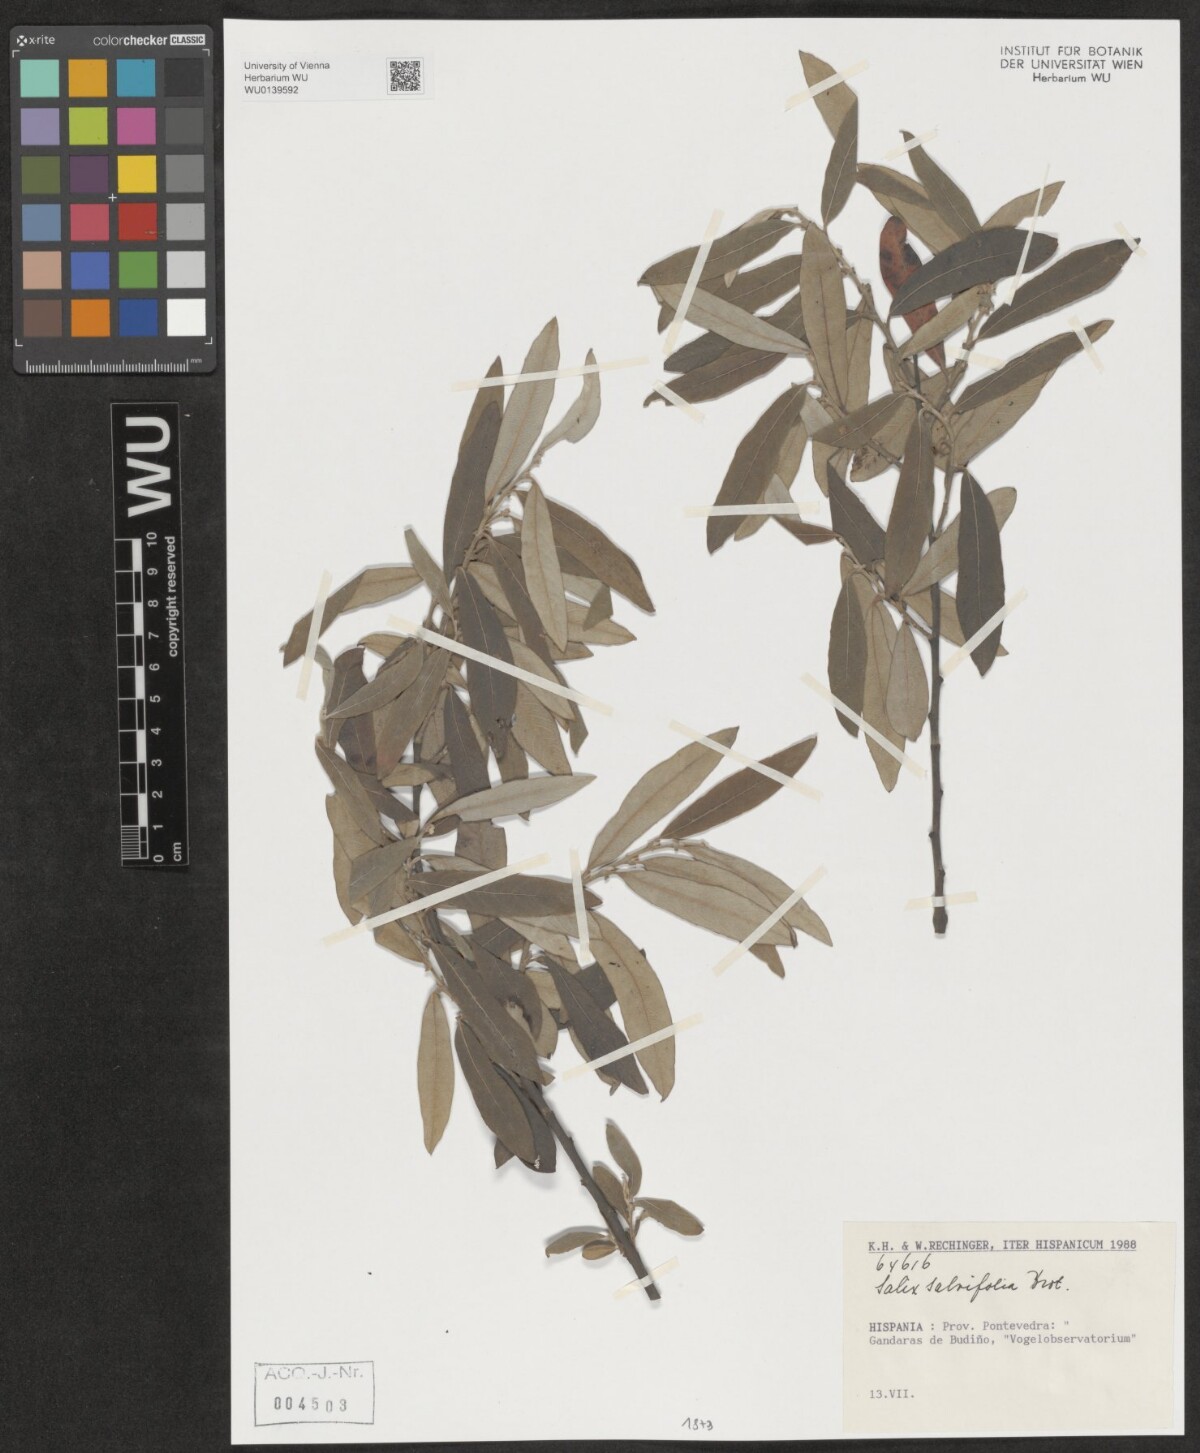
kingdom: Plantae
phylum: Tracheophyta
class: Magnoliopsida
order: Malpighiales
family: Salicaceae
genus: Salix
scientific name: Salix salviifolia
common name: Salvia-leaf willow
